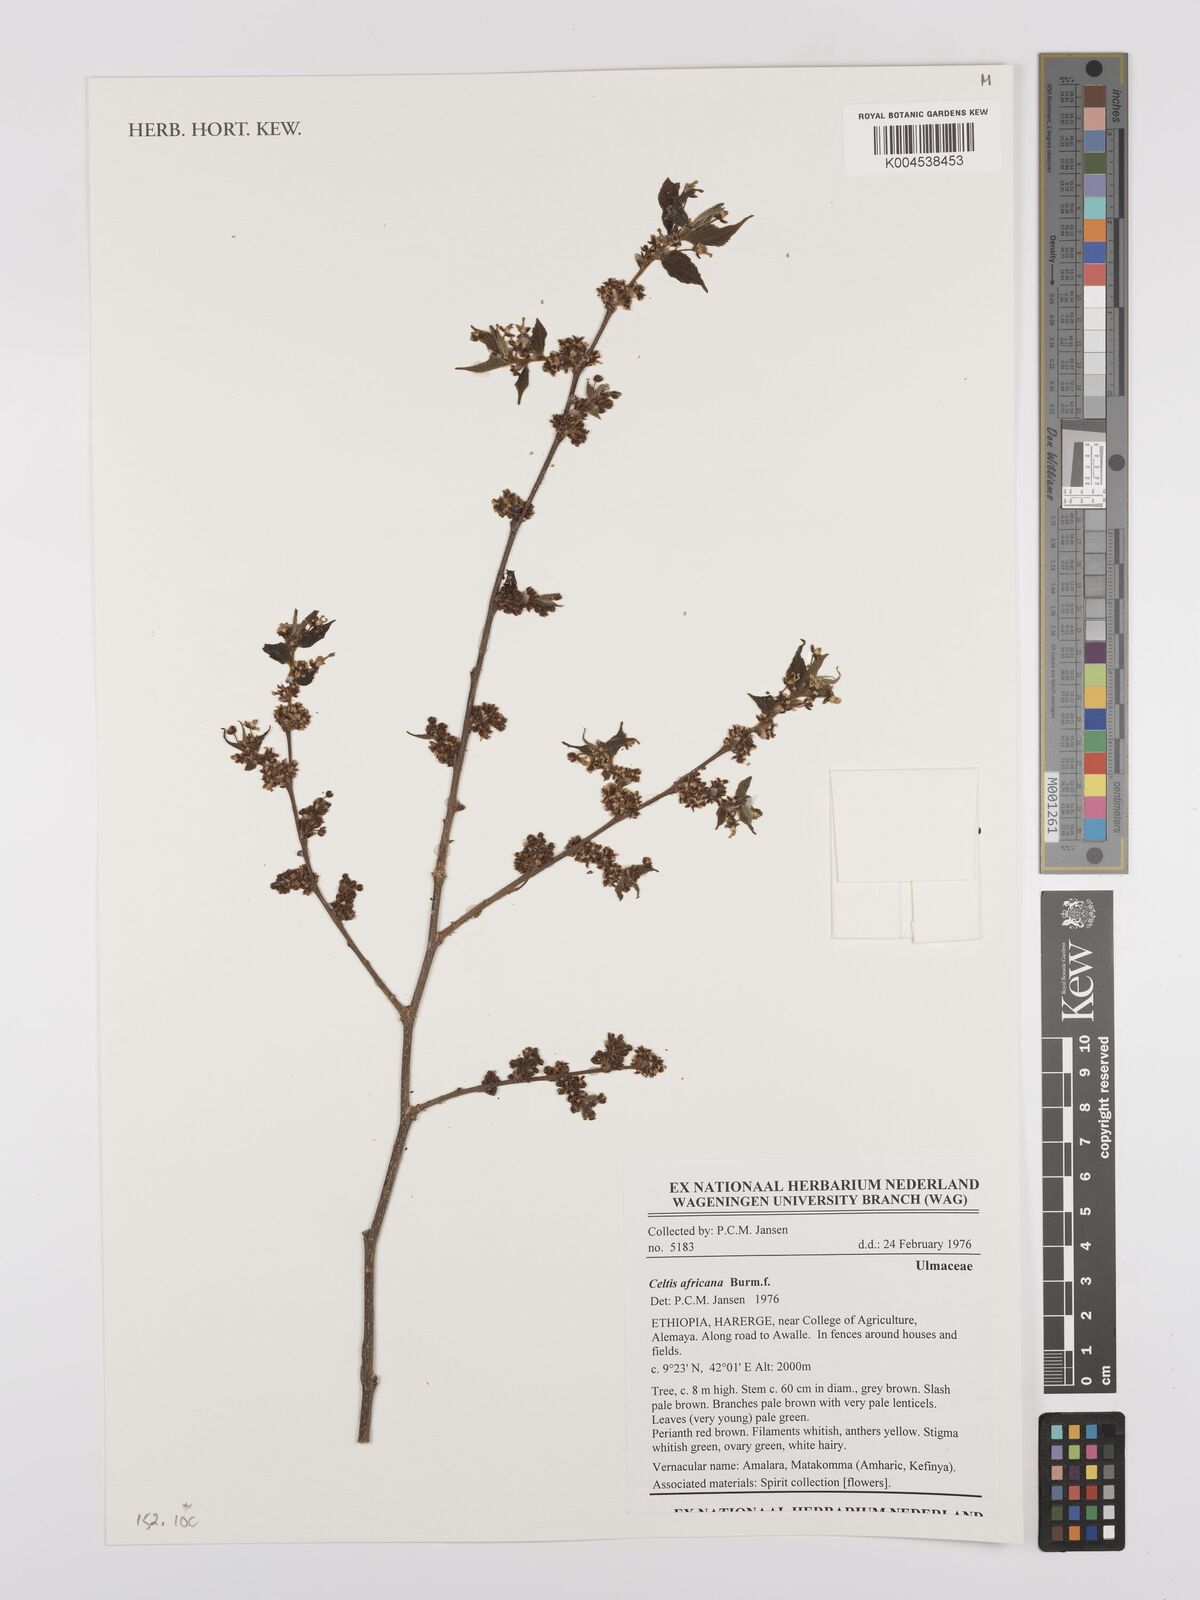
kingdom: Plantae
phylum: Tracheophyta
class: Magnoliopsida
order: Rosales
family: Cannabaceae
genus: Celtis
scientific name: Celtis africana
